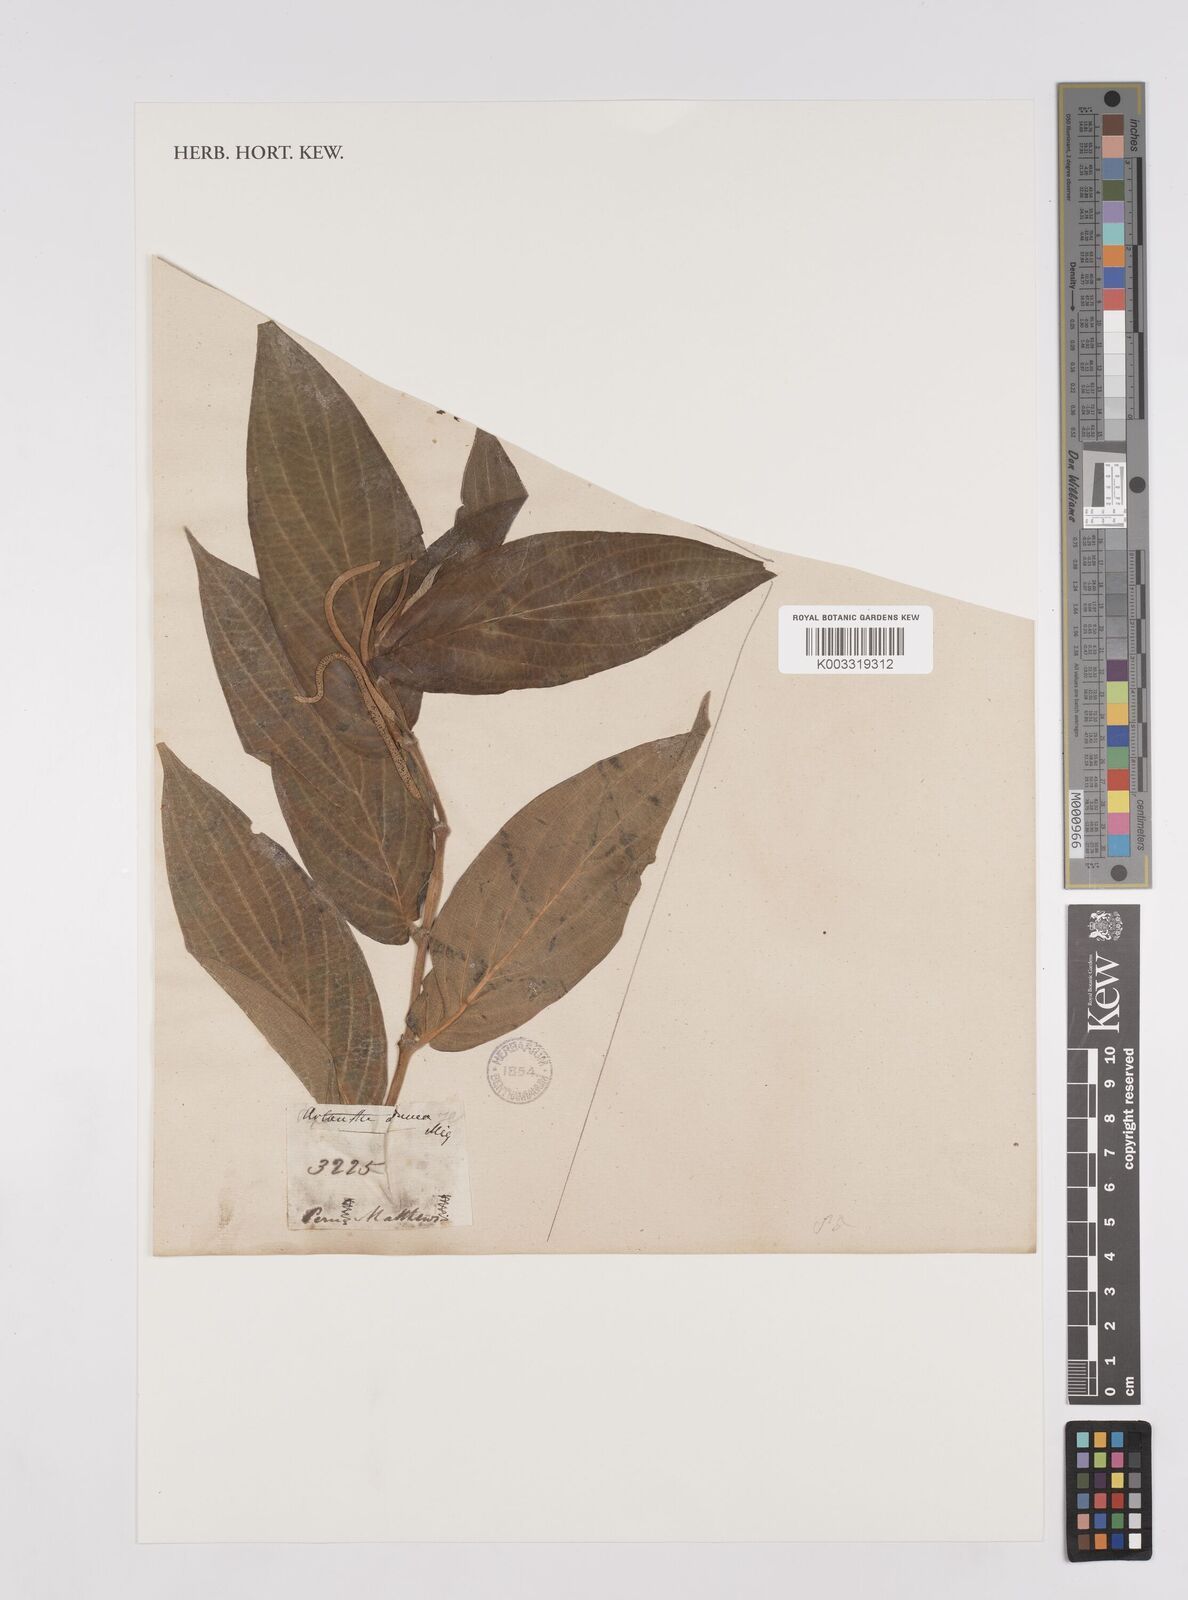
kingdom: Plantae
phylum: Tracheophyta
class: Magnoliopsida
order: Piperales
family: Piperaceae
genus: Piper
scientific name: Piper aduncum
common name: Spiked pepper
